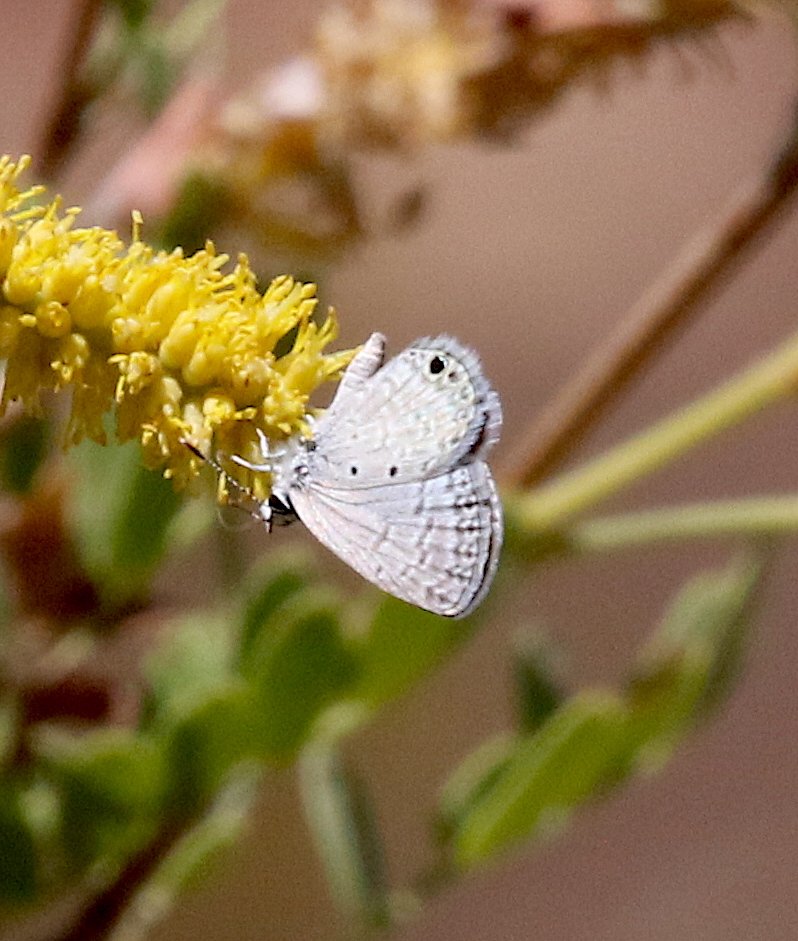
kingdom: Animalia
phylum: Arthropoda
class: Insecta
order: Lepidoptera
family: Lycaenidae
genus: Hemiargus
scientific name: Hemiargus ceraunus
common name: Ceraunus Blue
